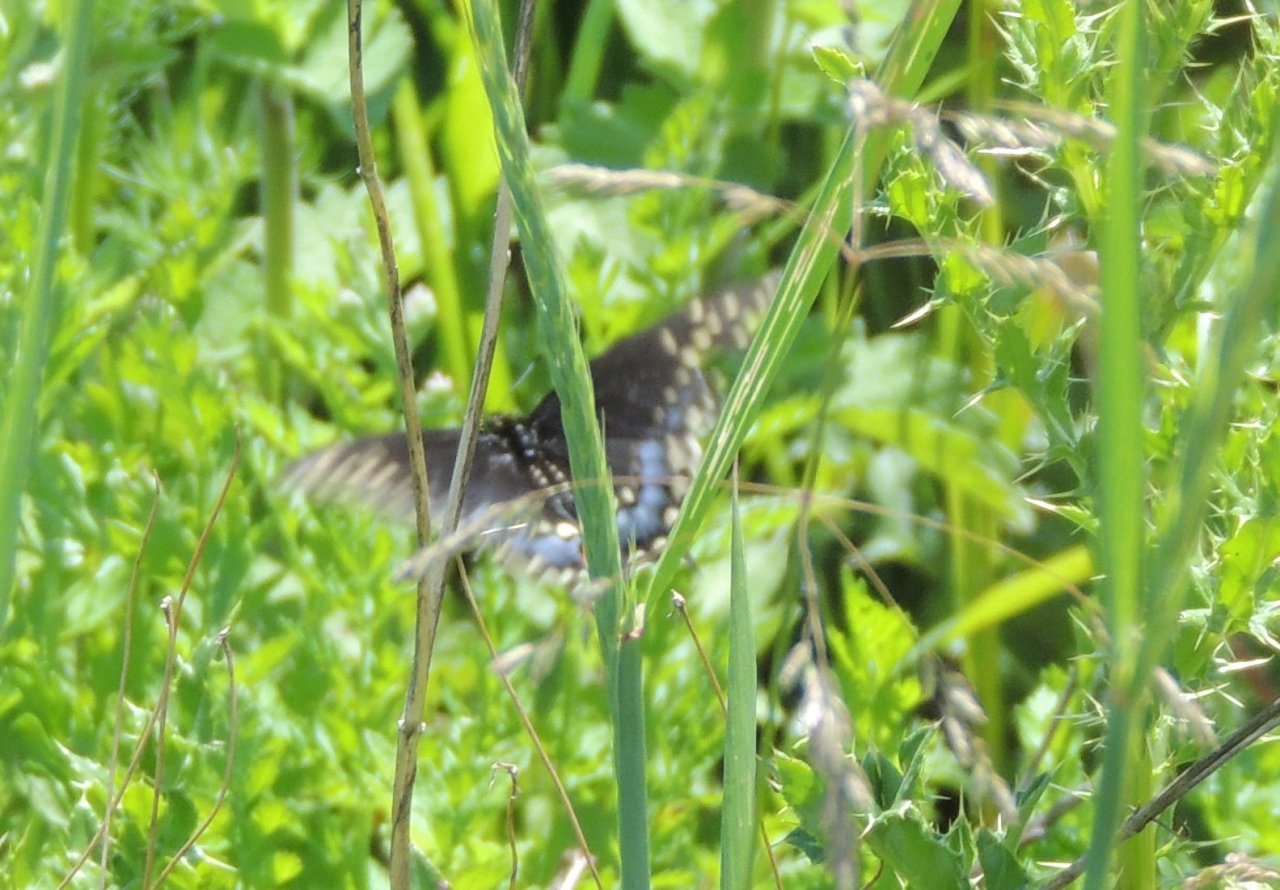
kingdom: Animalia
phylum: Arthropoda
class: Insecta
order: Lepidoptera
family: Papilionidae
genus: Papilio
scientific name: Papilio polyxenes
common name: Black Swallowtail
